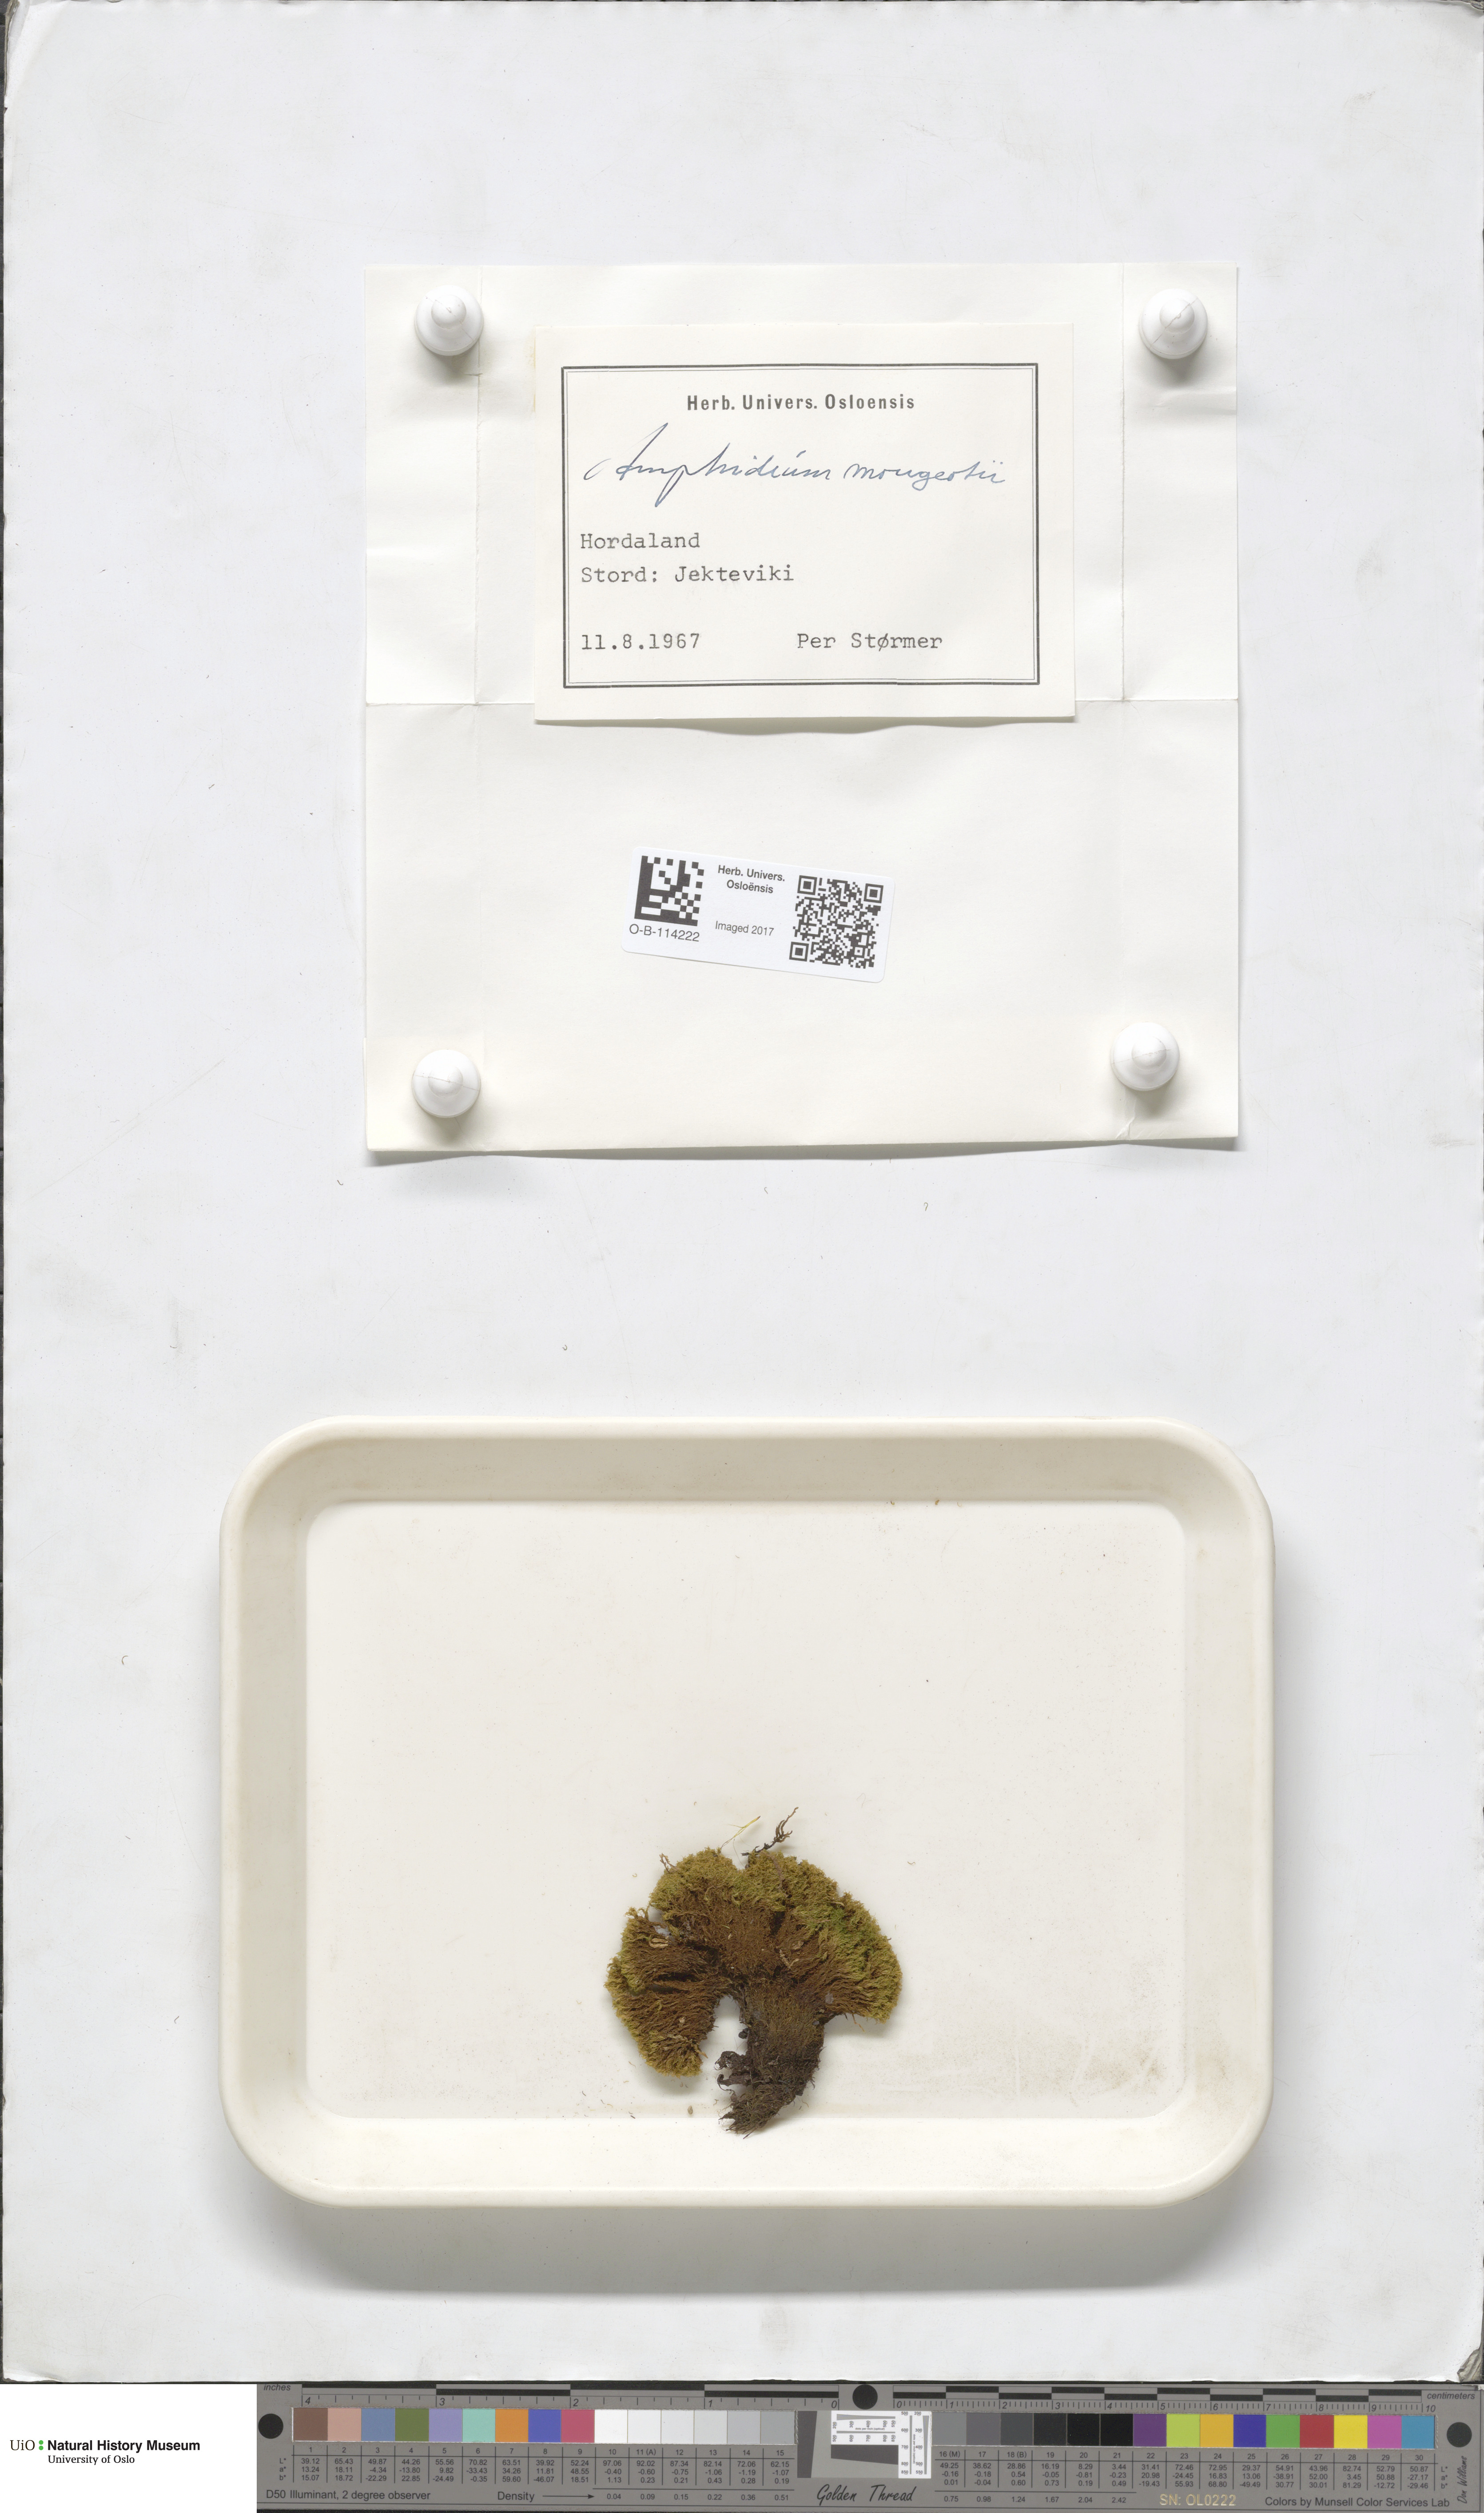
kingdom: Plantae
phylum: Bryophyta
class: Bryopsida
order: Dicranales
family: Amphidiaceae
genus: Amphidium
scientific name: Amphidium mougeotii
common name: Mougeot's yoke moss
